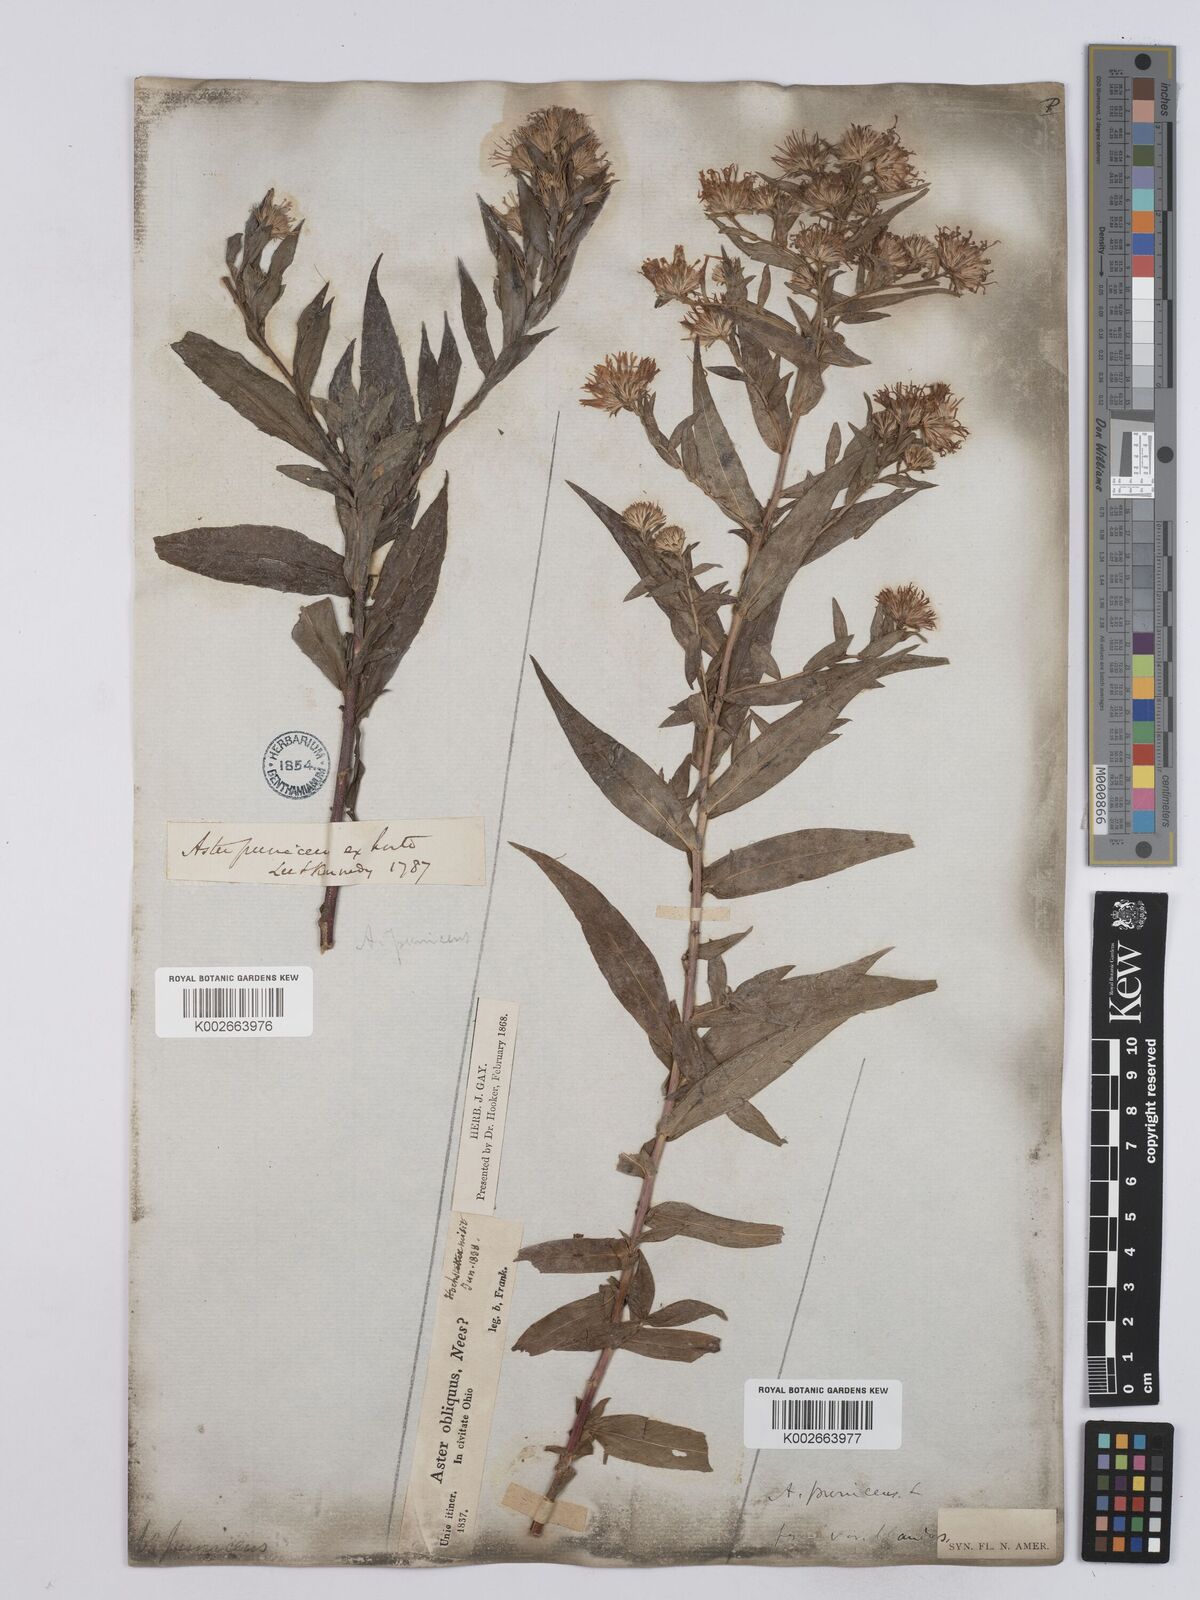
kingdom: Plantae
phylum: Tracheophyta
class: Magnoliopsida
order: Asterales
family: Asteraceae
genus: Symphyotrichum
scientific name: Symphyotrichum puniceum
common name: Bog aster
